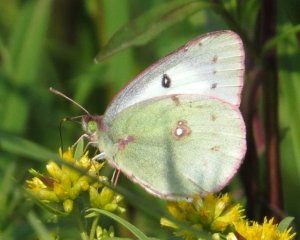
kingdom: Animalia
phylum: Arthropoda
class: Insecta
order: Lepidoptera
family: Pieridae
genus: Colias
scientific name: Colias philodice
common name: Clouded Sulphur
